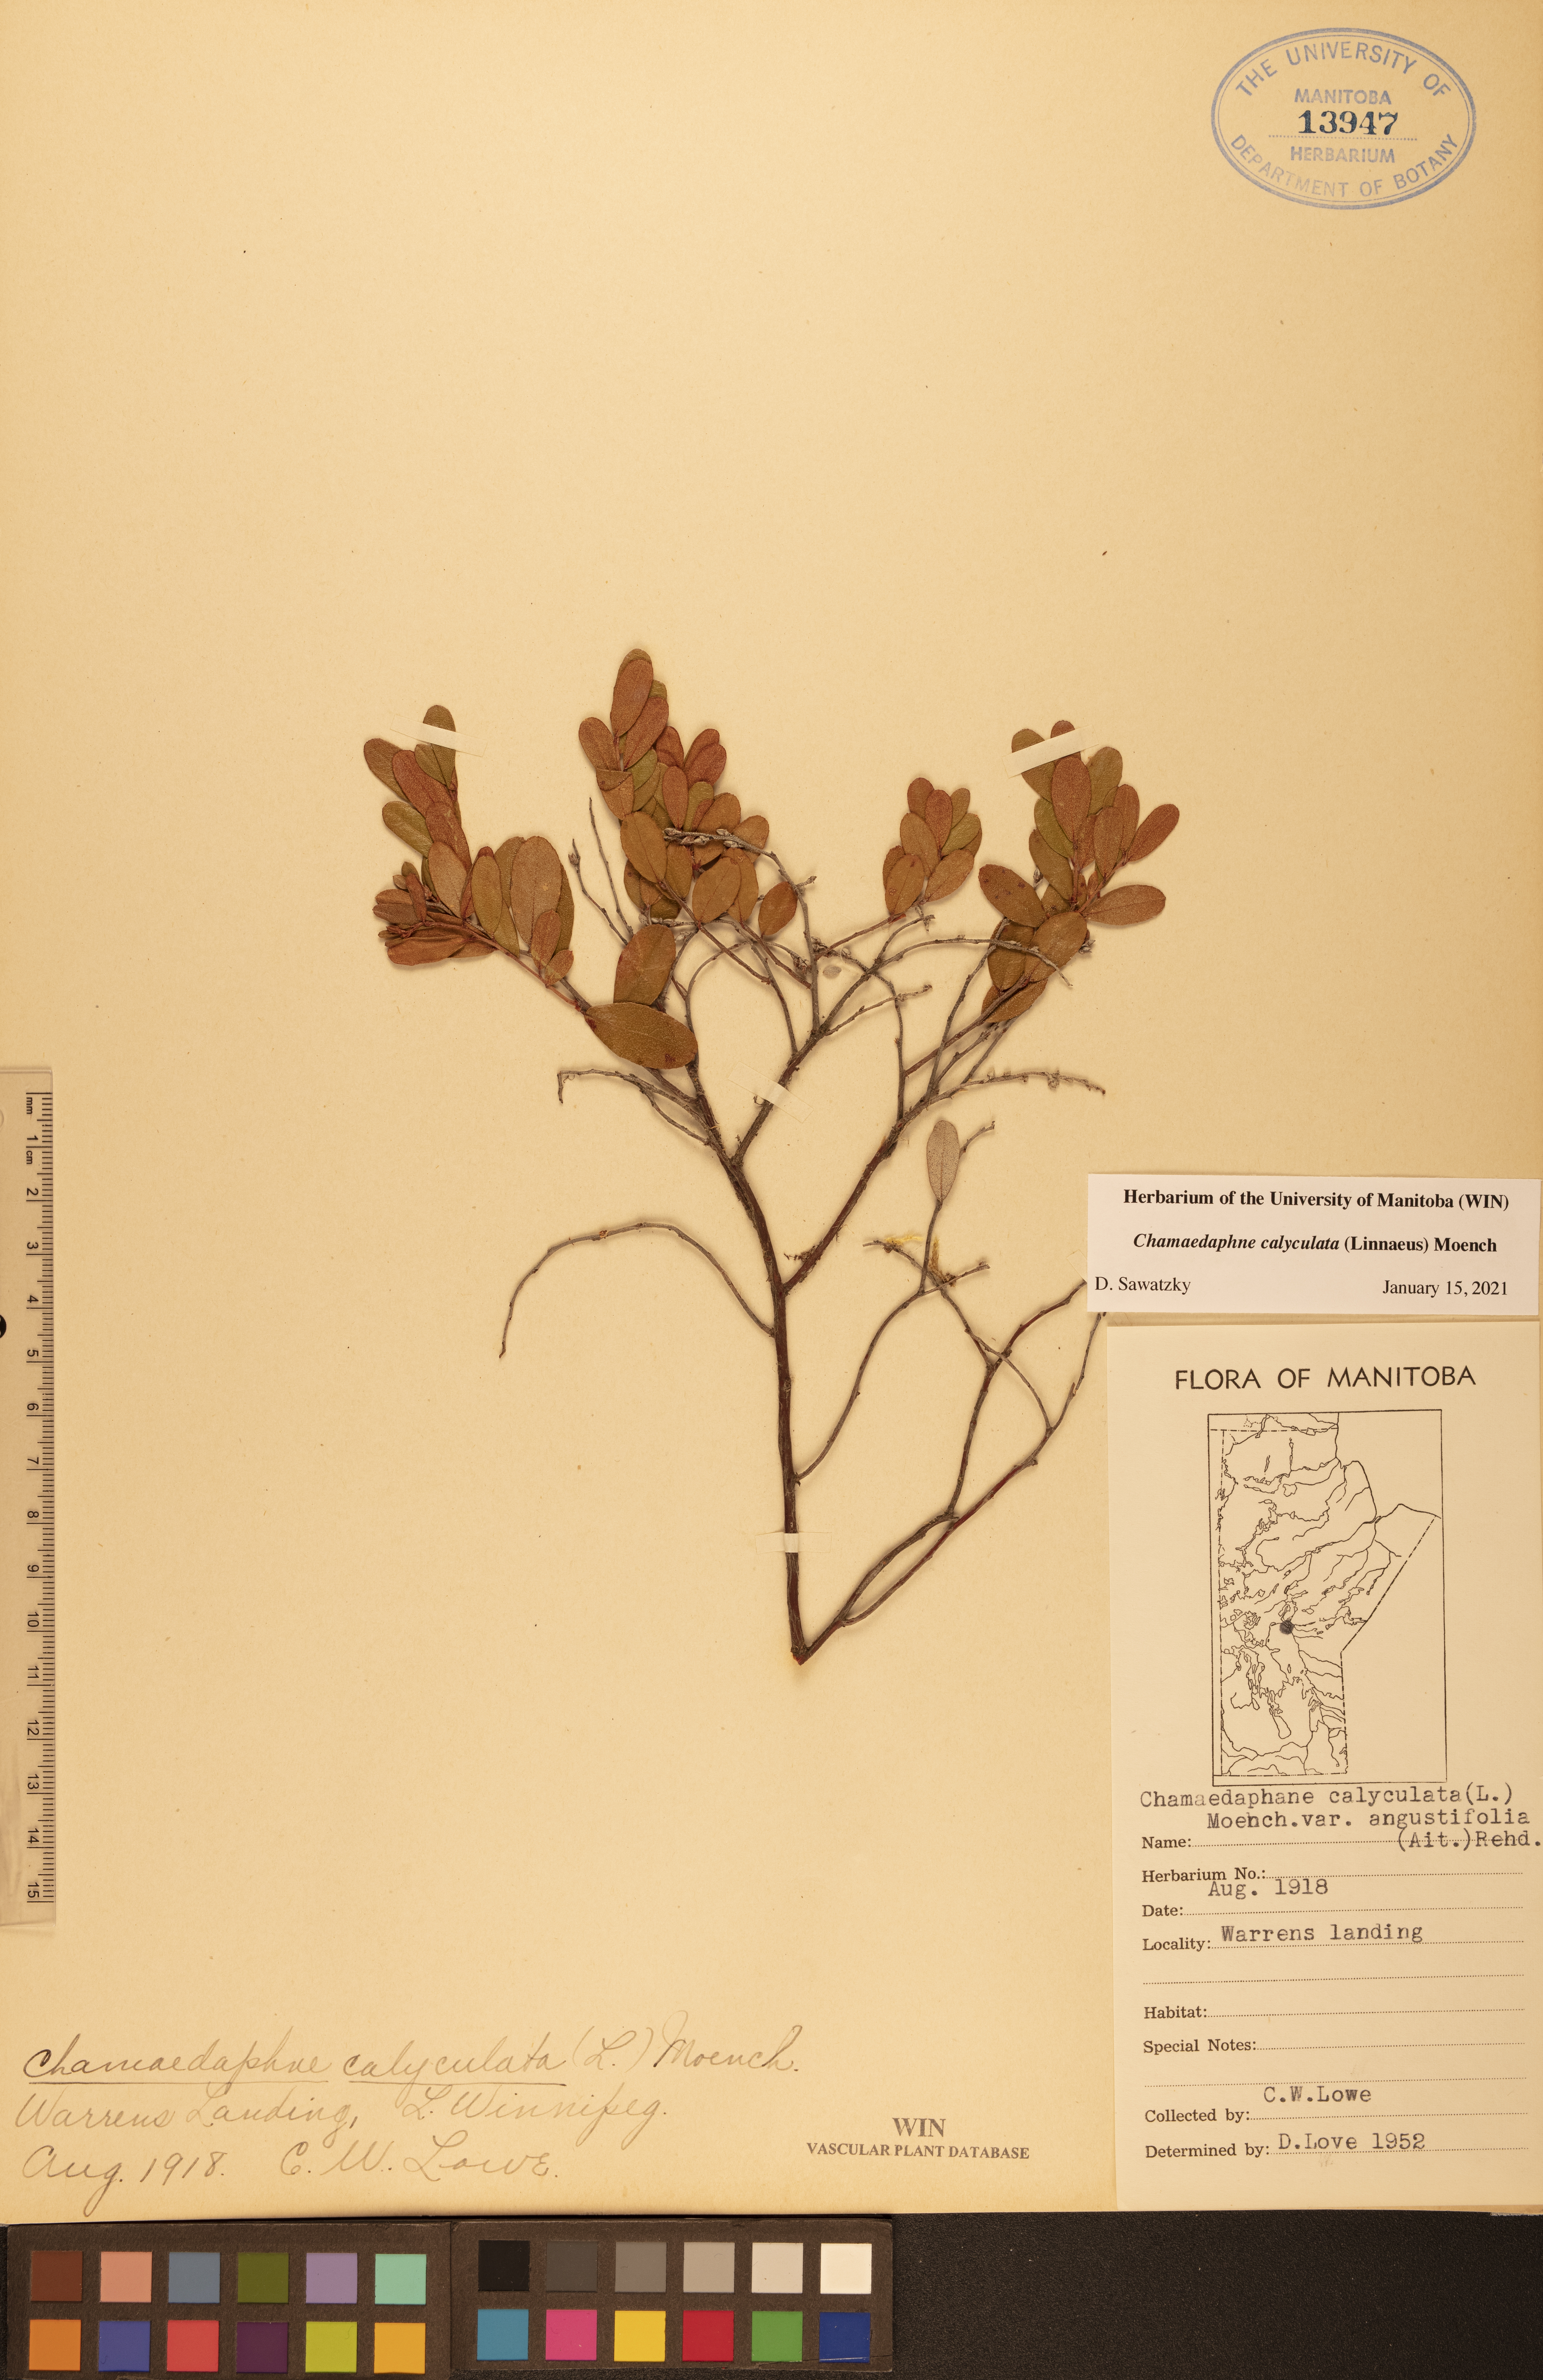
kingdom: Plantae
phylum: Tracheophyta
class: Magnoliopsida
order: Ericales
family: Ericaceae
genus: Chamaedaphne
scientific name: Chamaedaphne calyculata
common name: Leatherleaf
